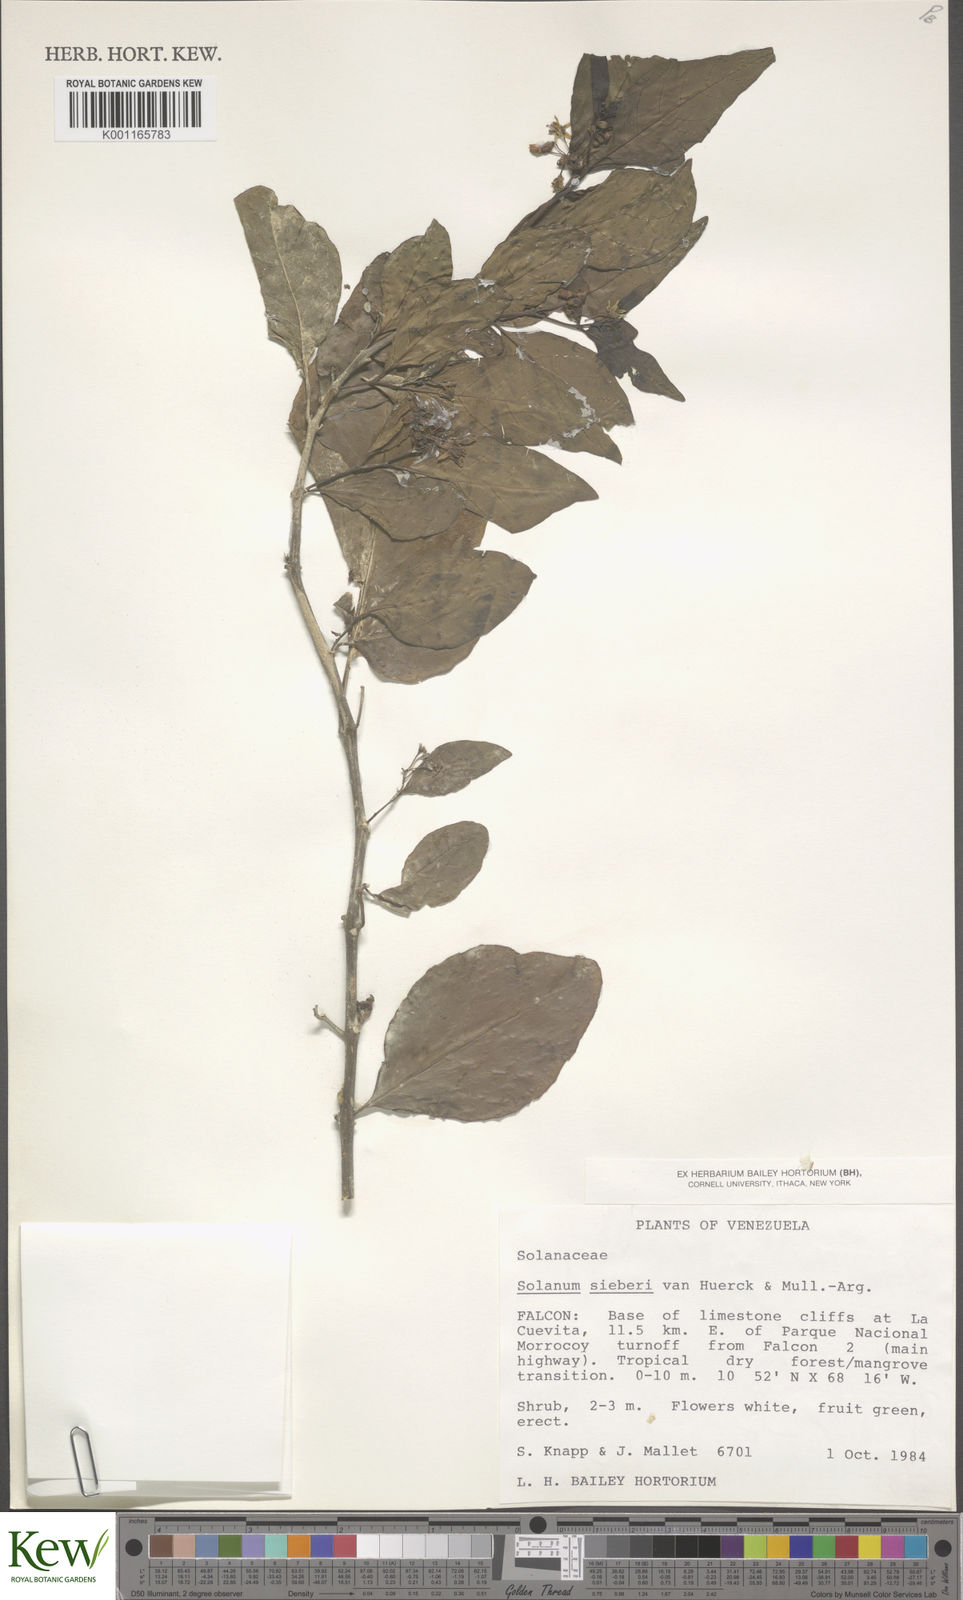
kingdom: Plantae
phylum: Tracheophyta
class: Magnoliopsida
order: Solanales
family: Solanaceae
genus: Solanum
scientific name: Solanum sieberi
